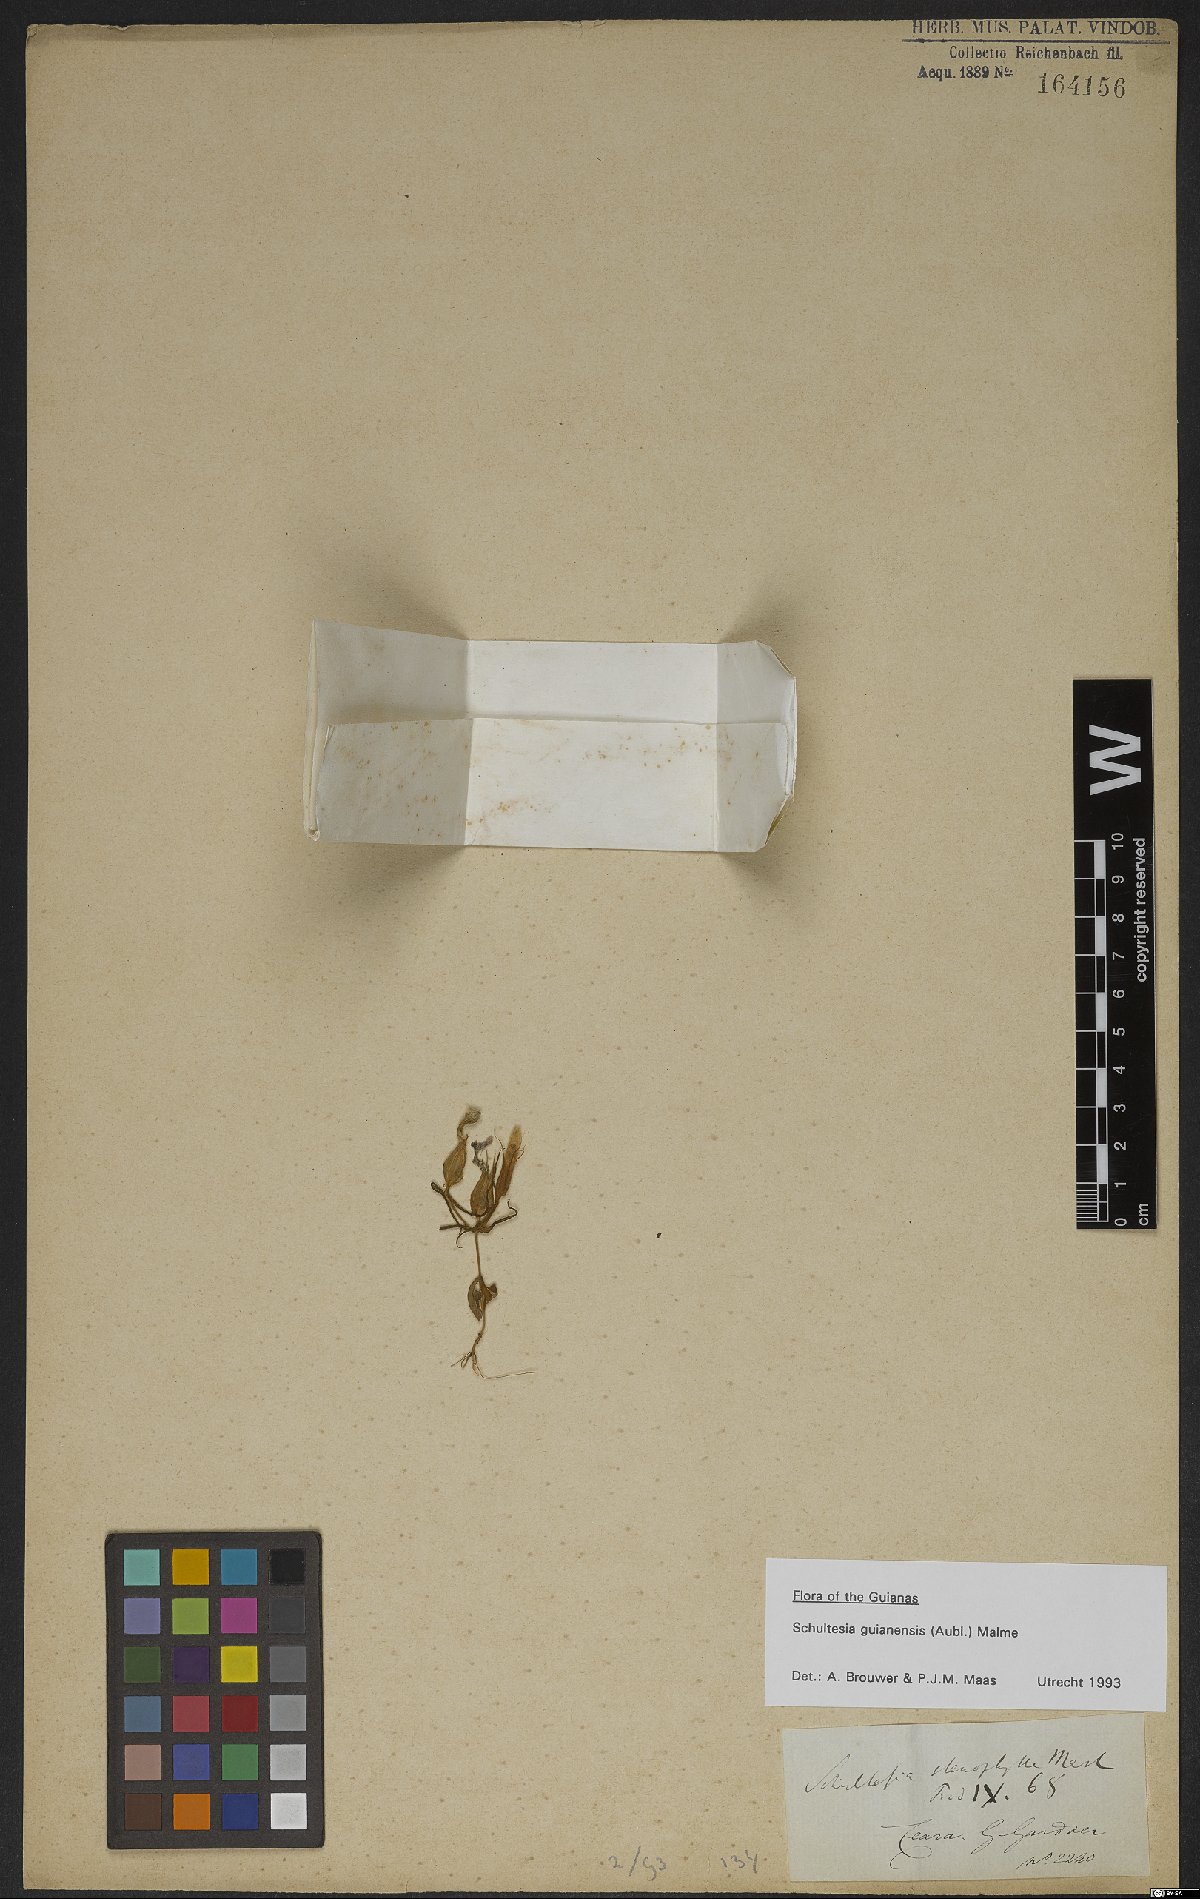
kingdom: Plantae
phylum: Tracheophyta
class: Magnoliopsida
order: Gentianales
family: Gentianaceae
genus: Schultesia
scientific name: Schultesia guianensis
